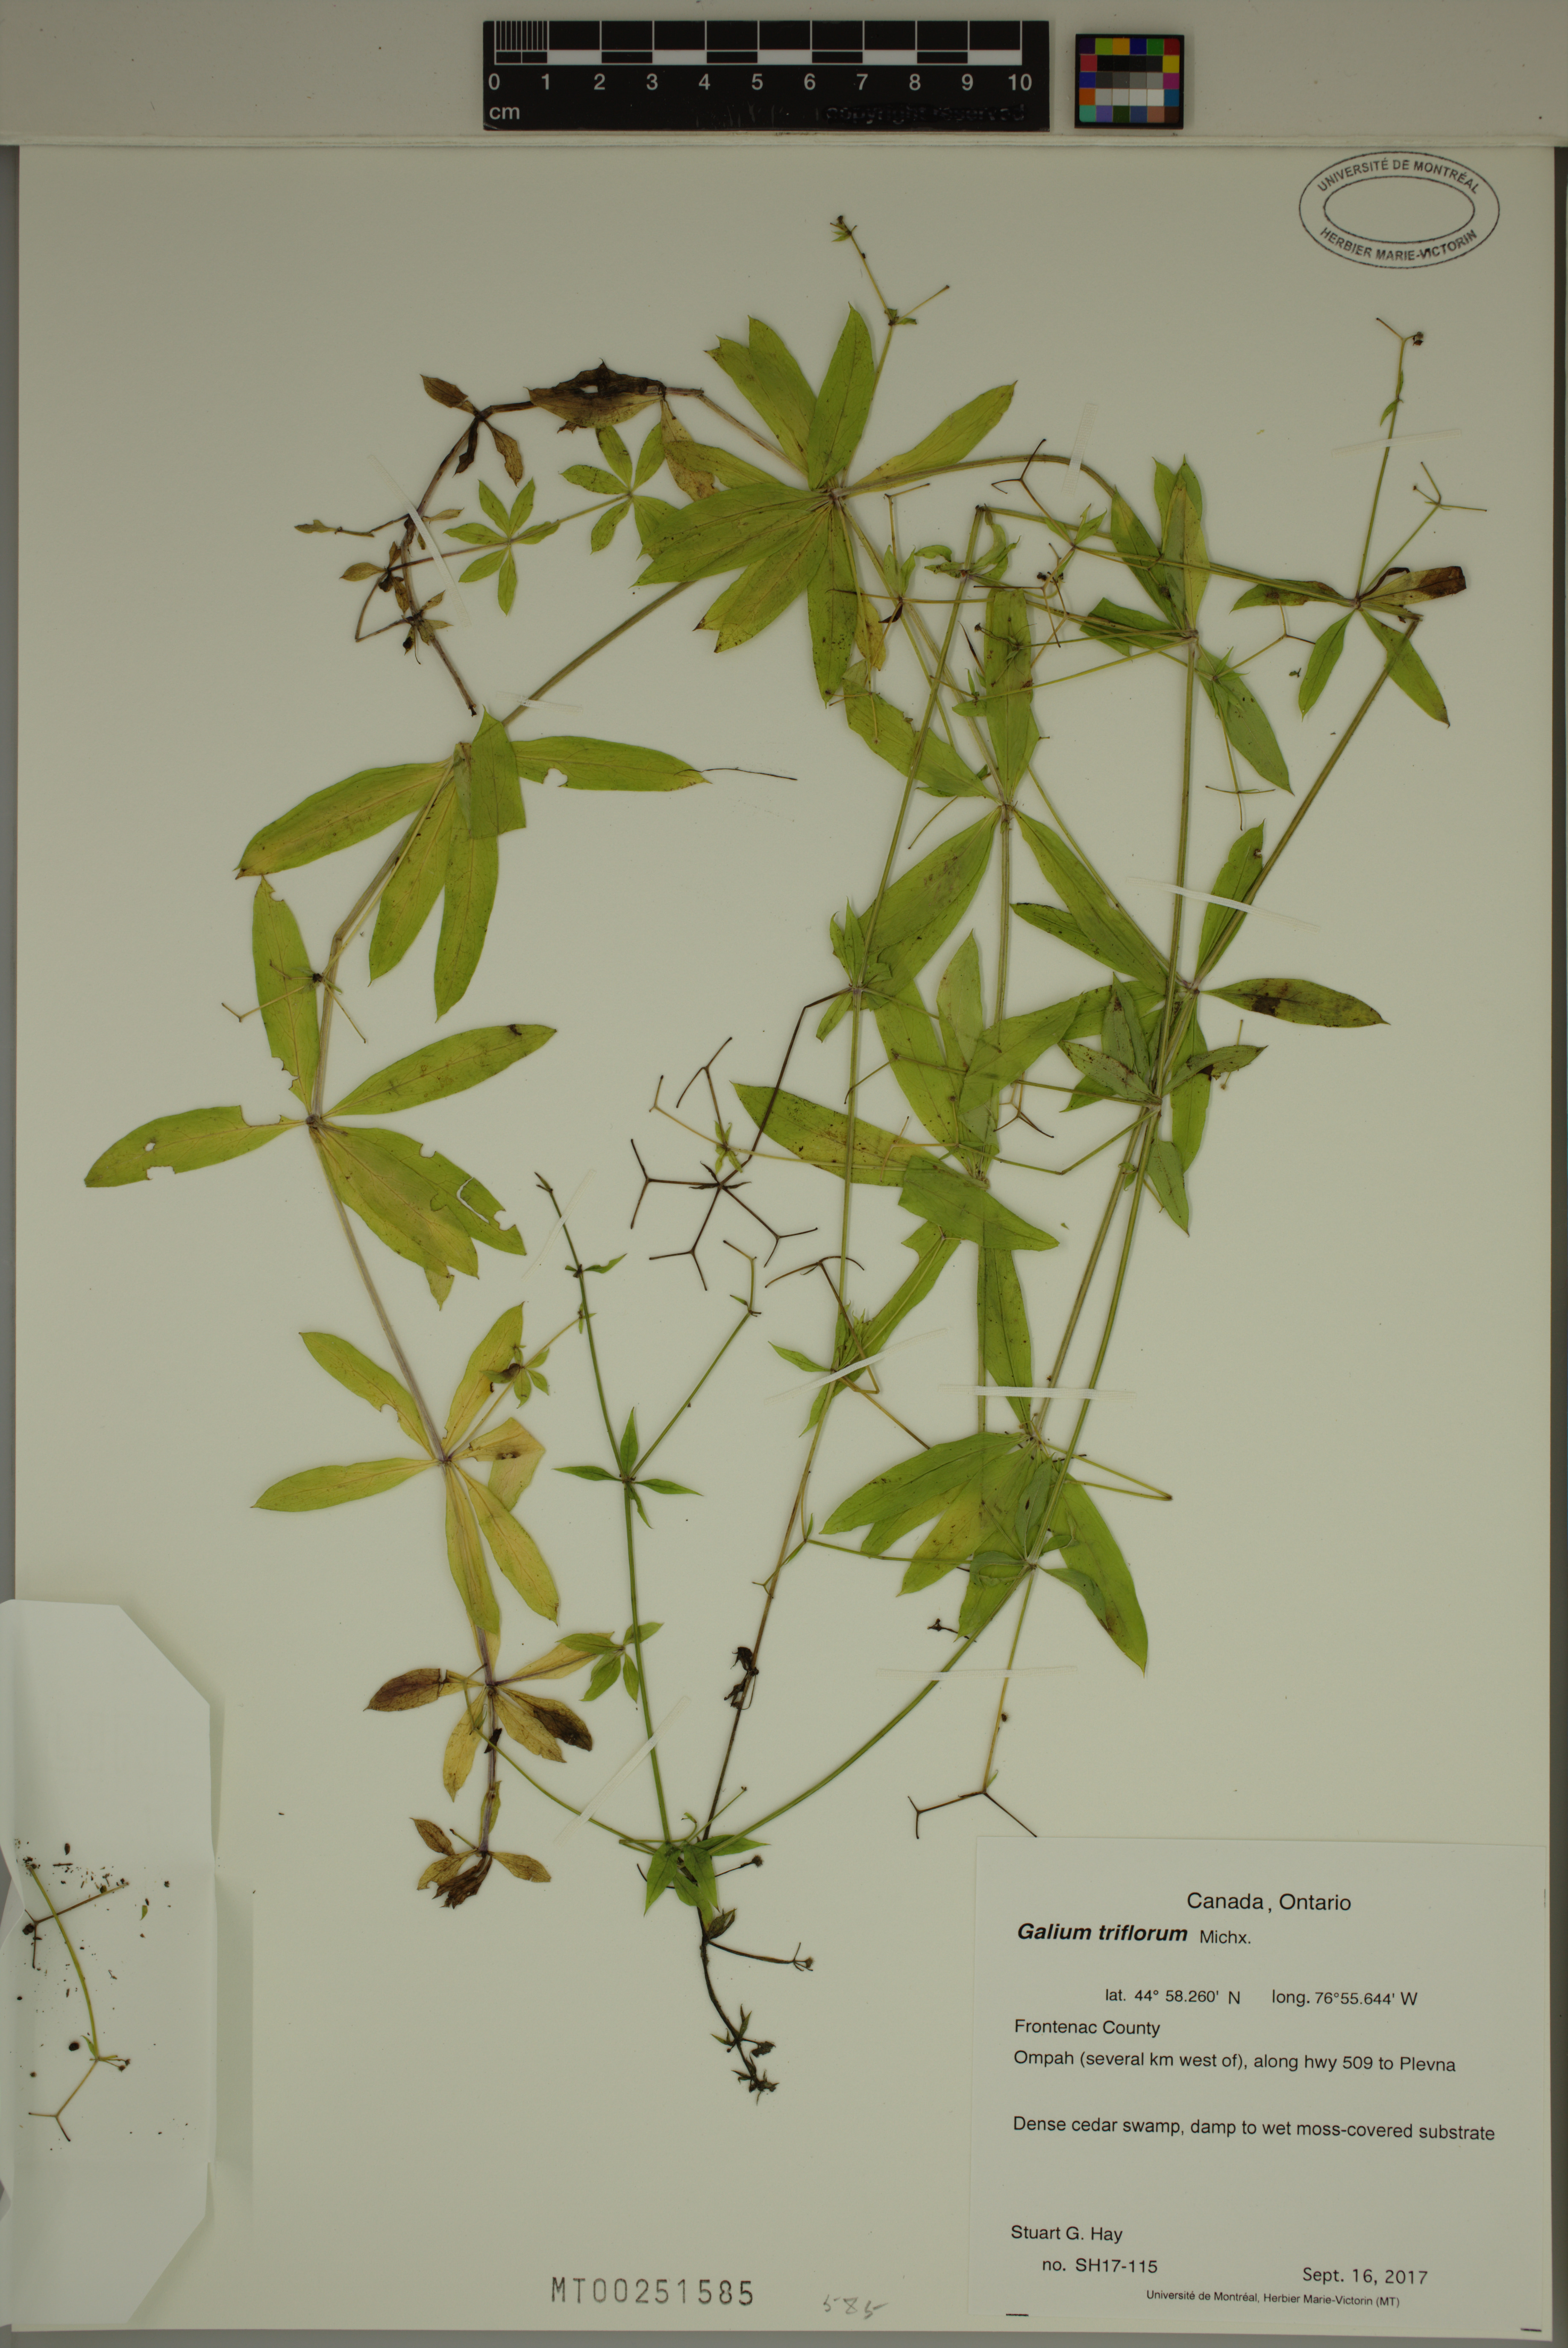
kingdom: Plantae
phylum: Tracheophyta
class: Magnoliopsida
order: Gentianales
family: Rubiaceae
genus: Galium
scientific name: Galium triflorum
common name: Fragrant bedstraw
